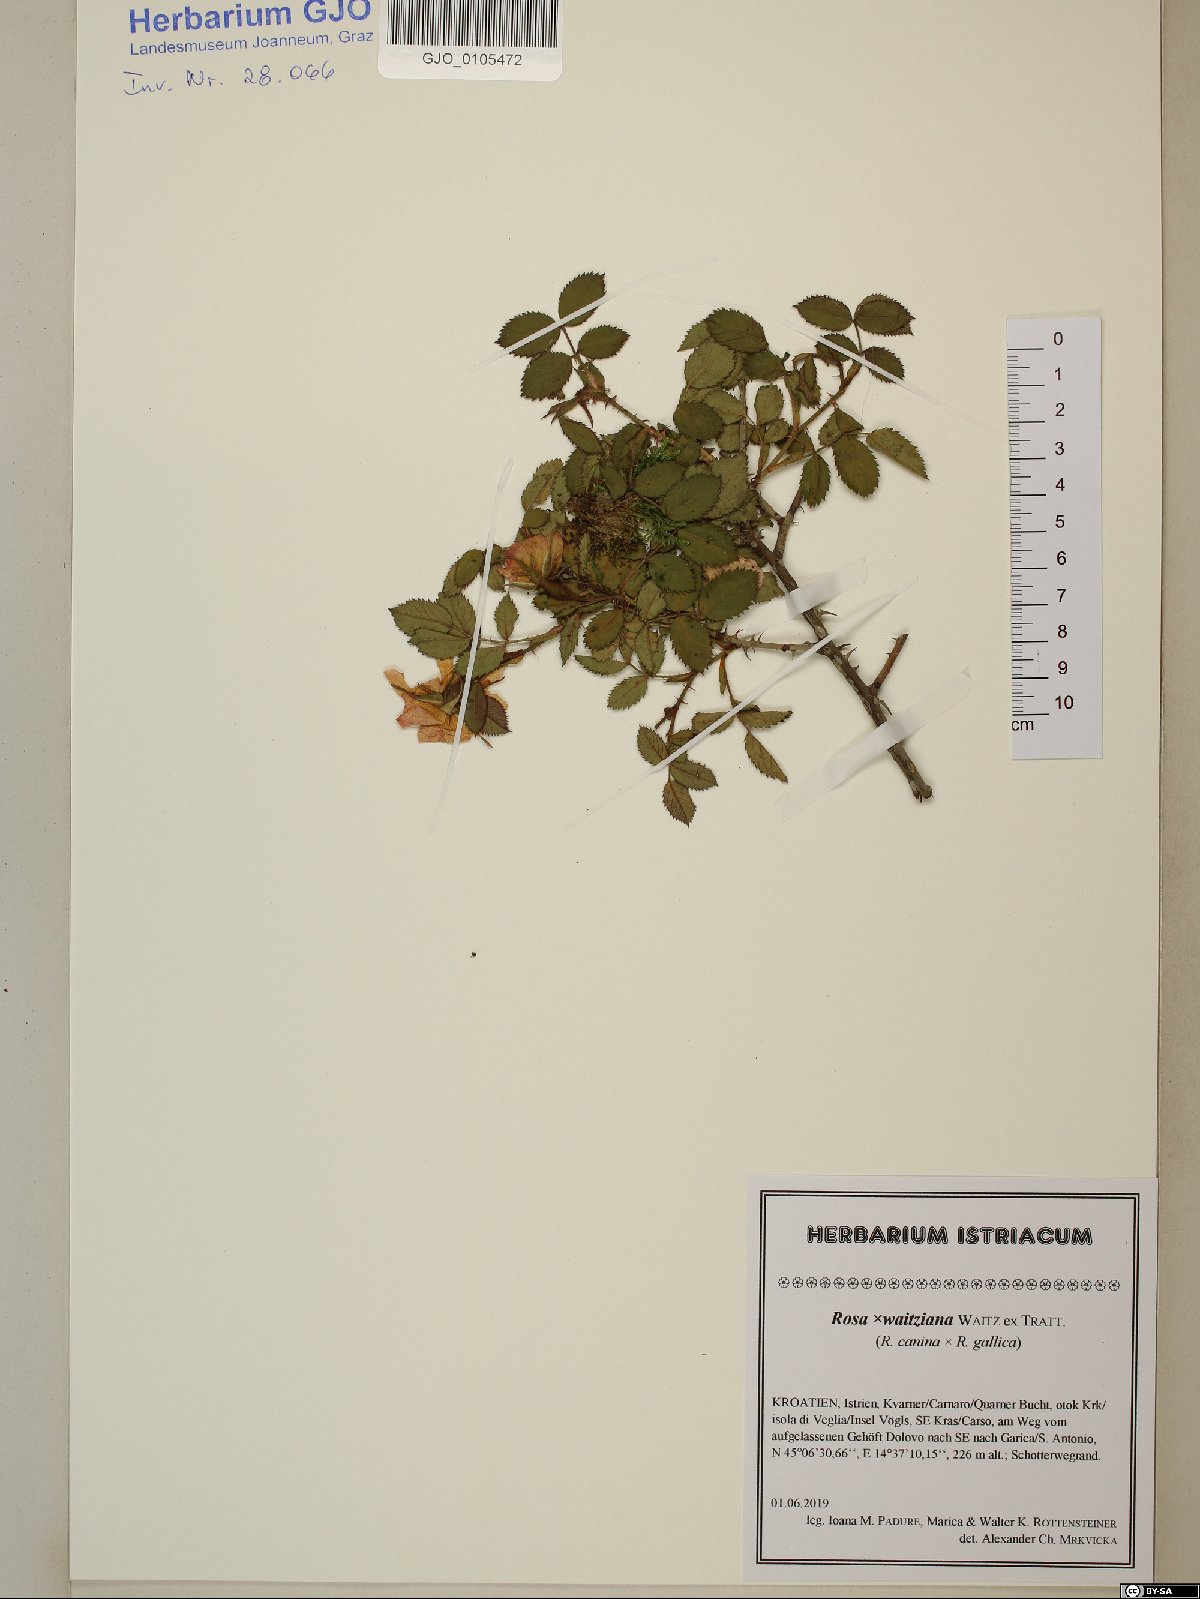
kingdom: Plantae
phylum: Tracheophyta
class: Magnoliopsida
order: Rosales
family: Rosaceae
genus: Rosa
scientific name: Rosa
